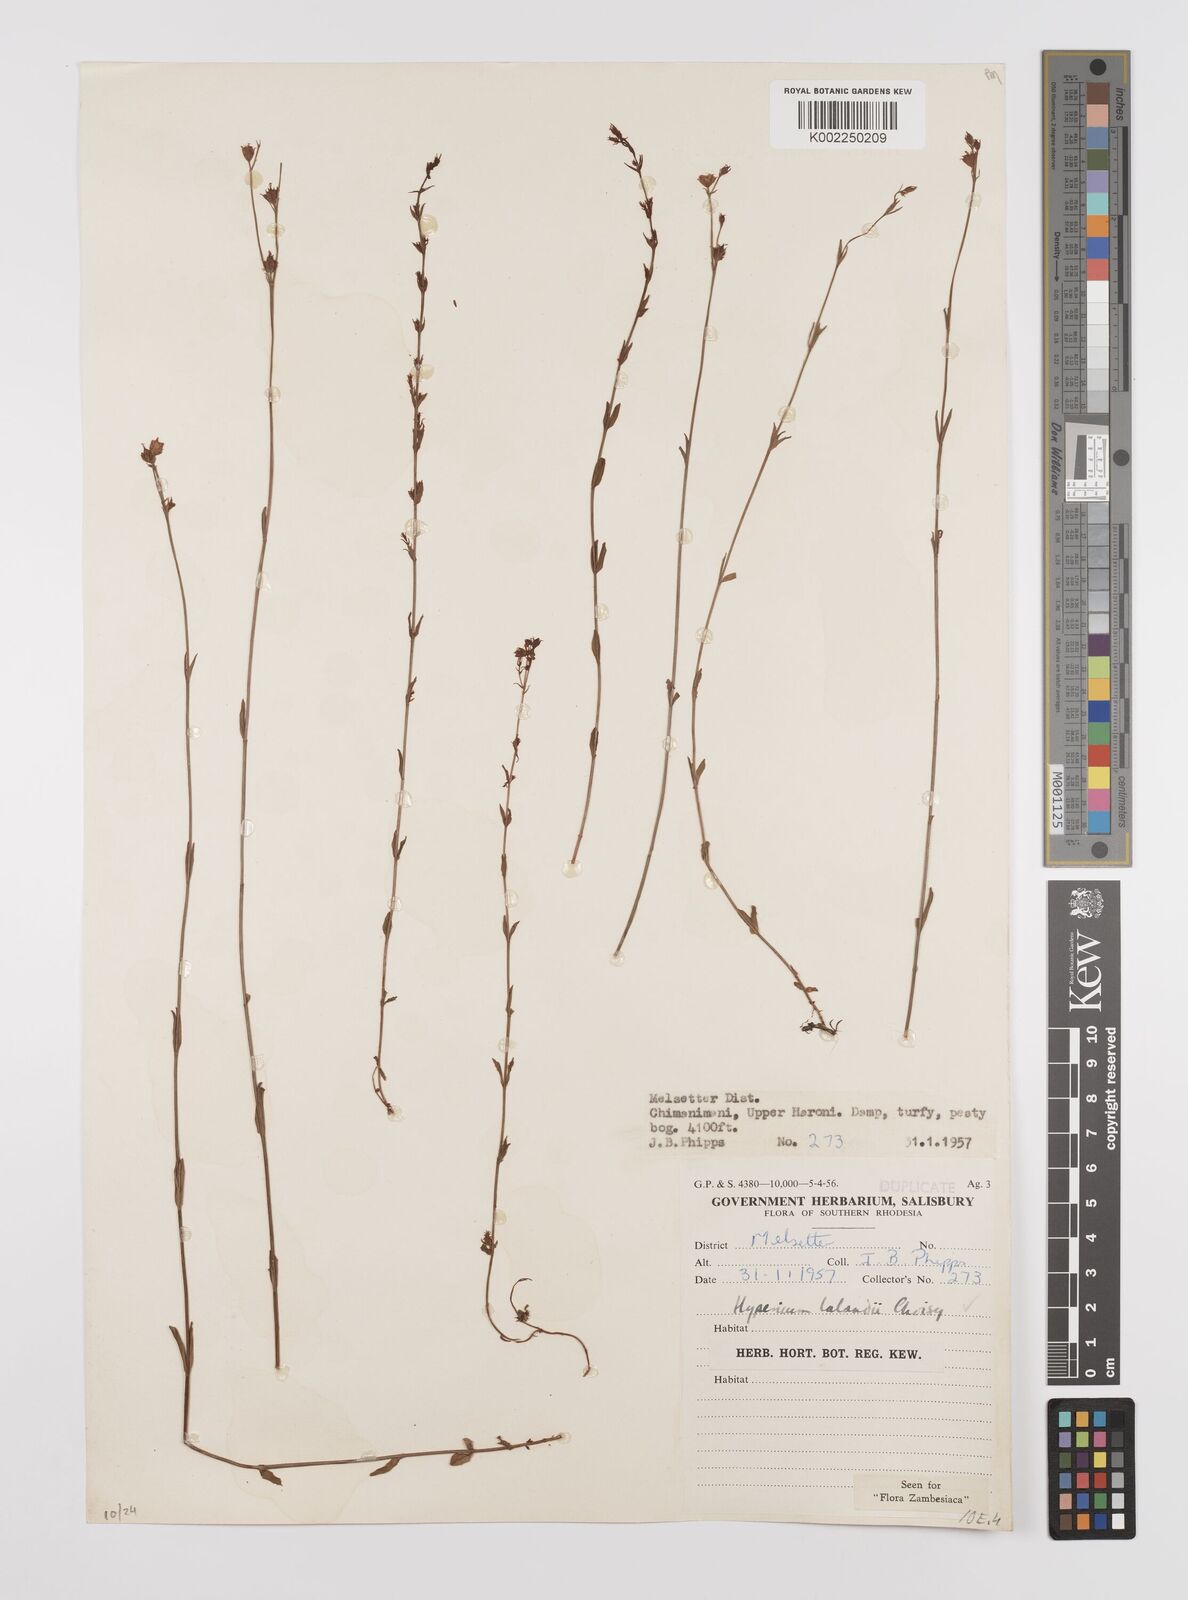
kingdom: Plantae
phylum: Tracheophyta
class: Magnoliopsida
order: Malpighiales
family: Hypericaceae
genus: Hypericum
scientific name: Hypericum lalandii
